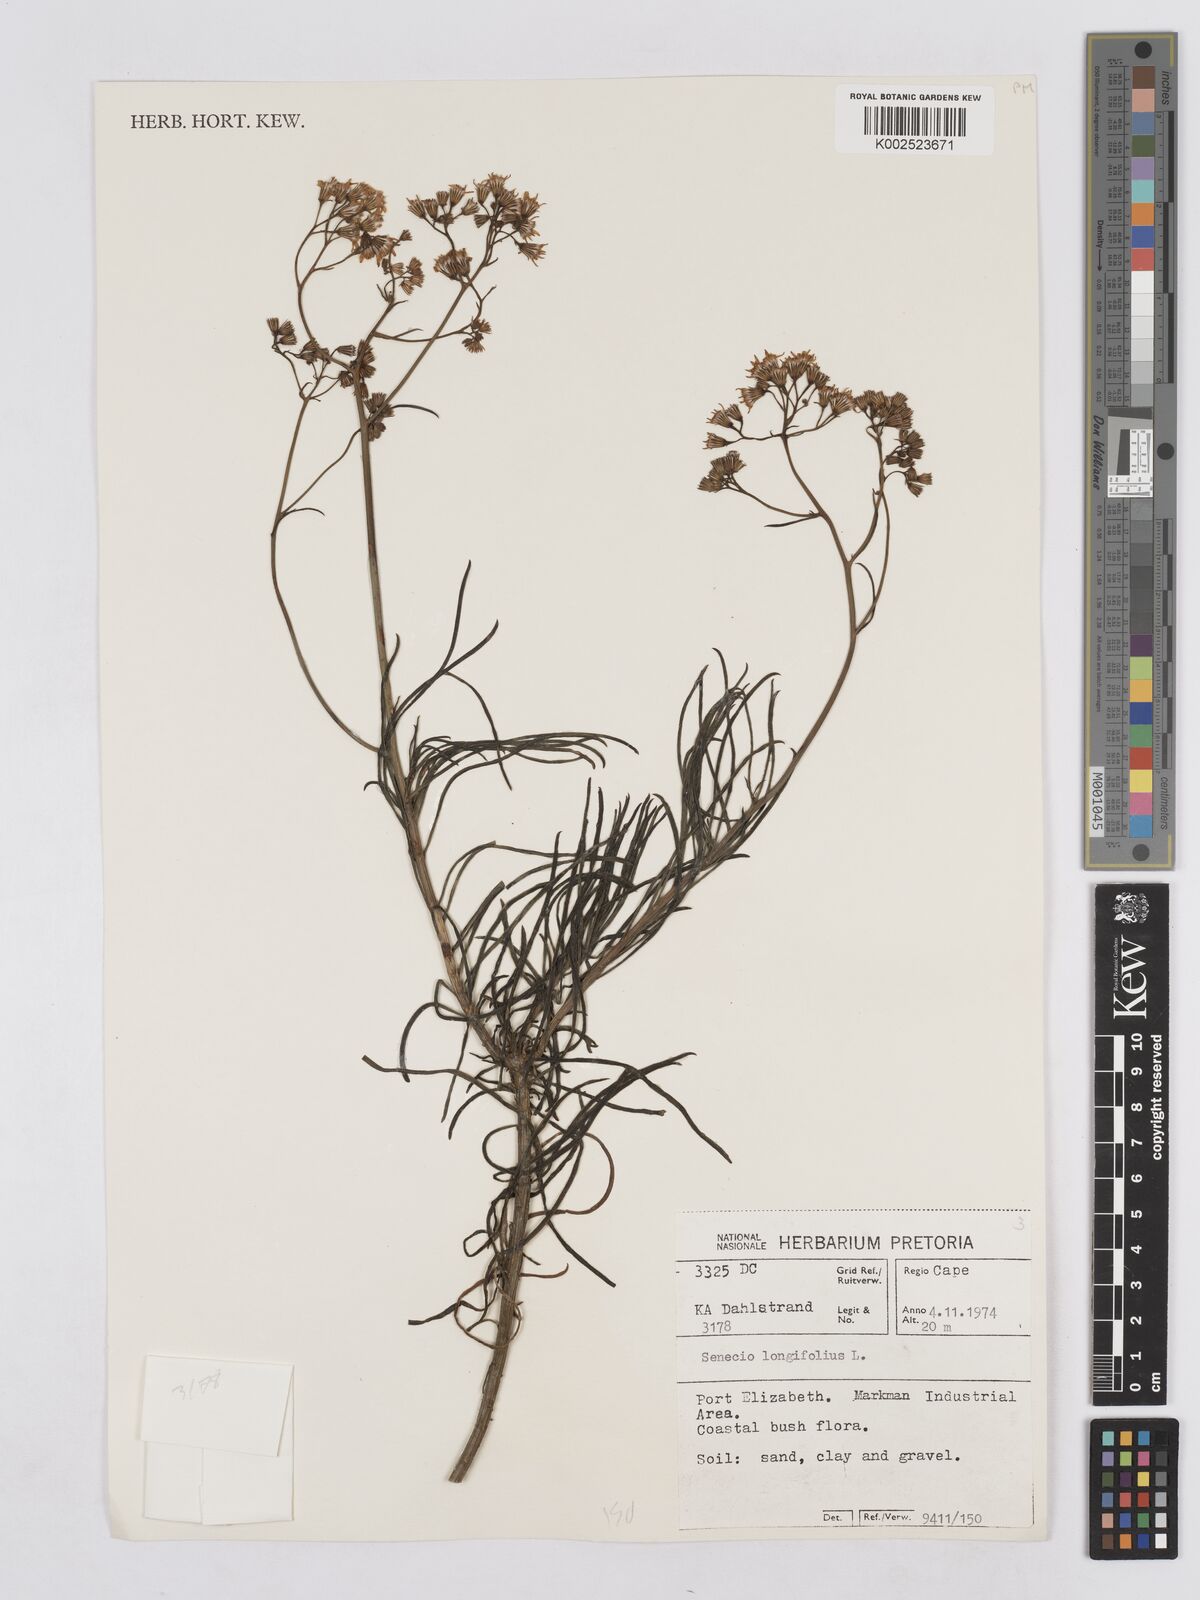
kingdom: Plantae
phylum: Tracheophyta
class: Magnoliopsida
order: Asterales
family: Asteraceae
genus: Senecio
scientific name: Senecio linifolius
